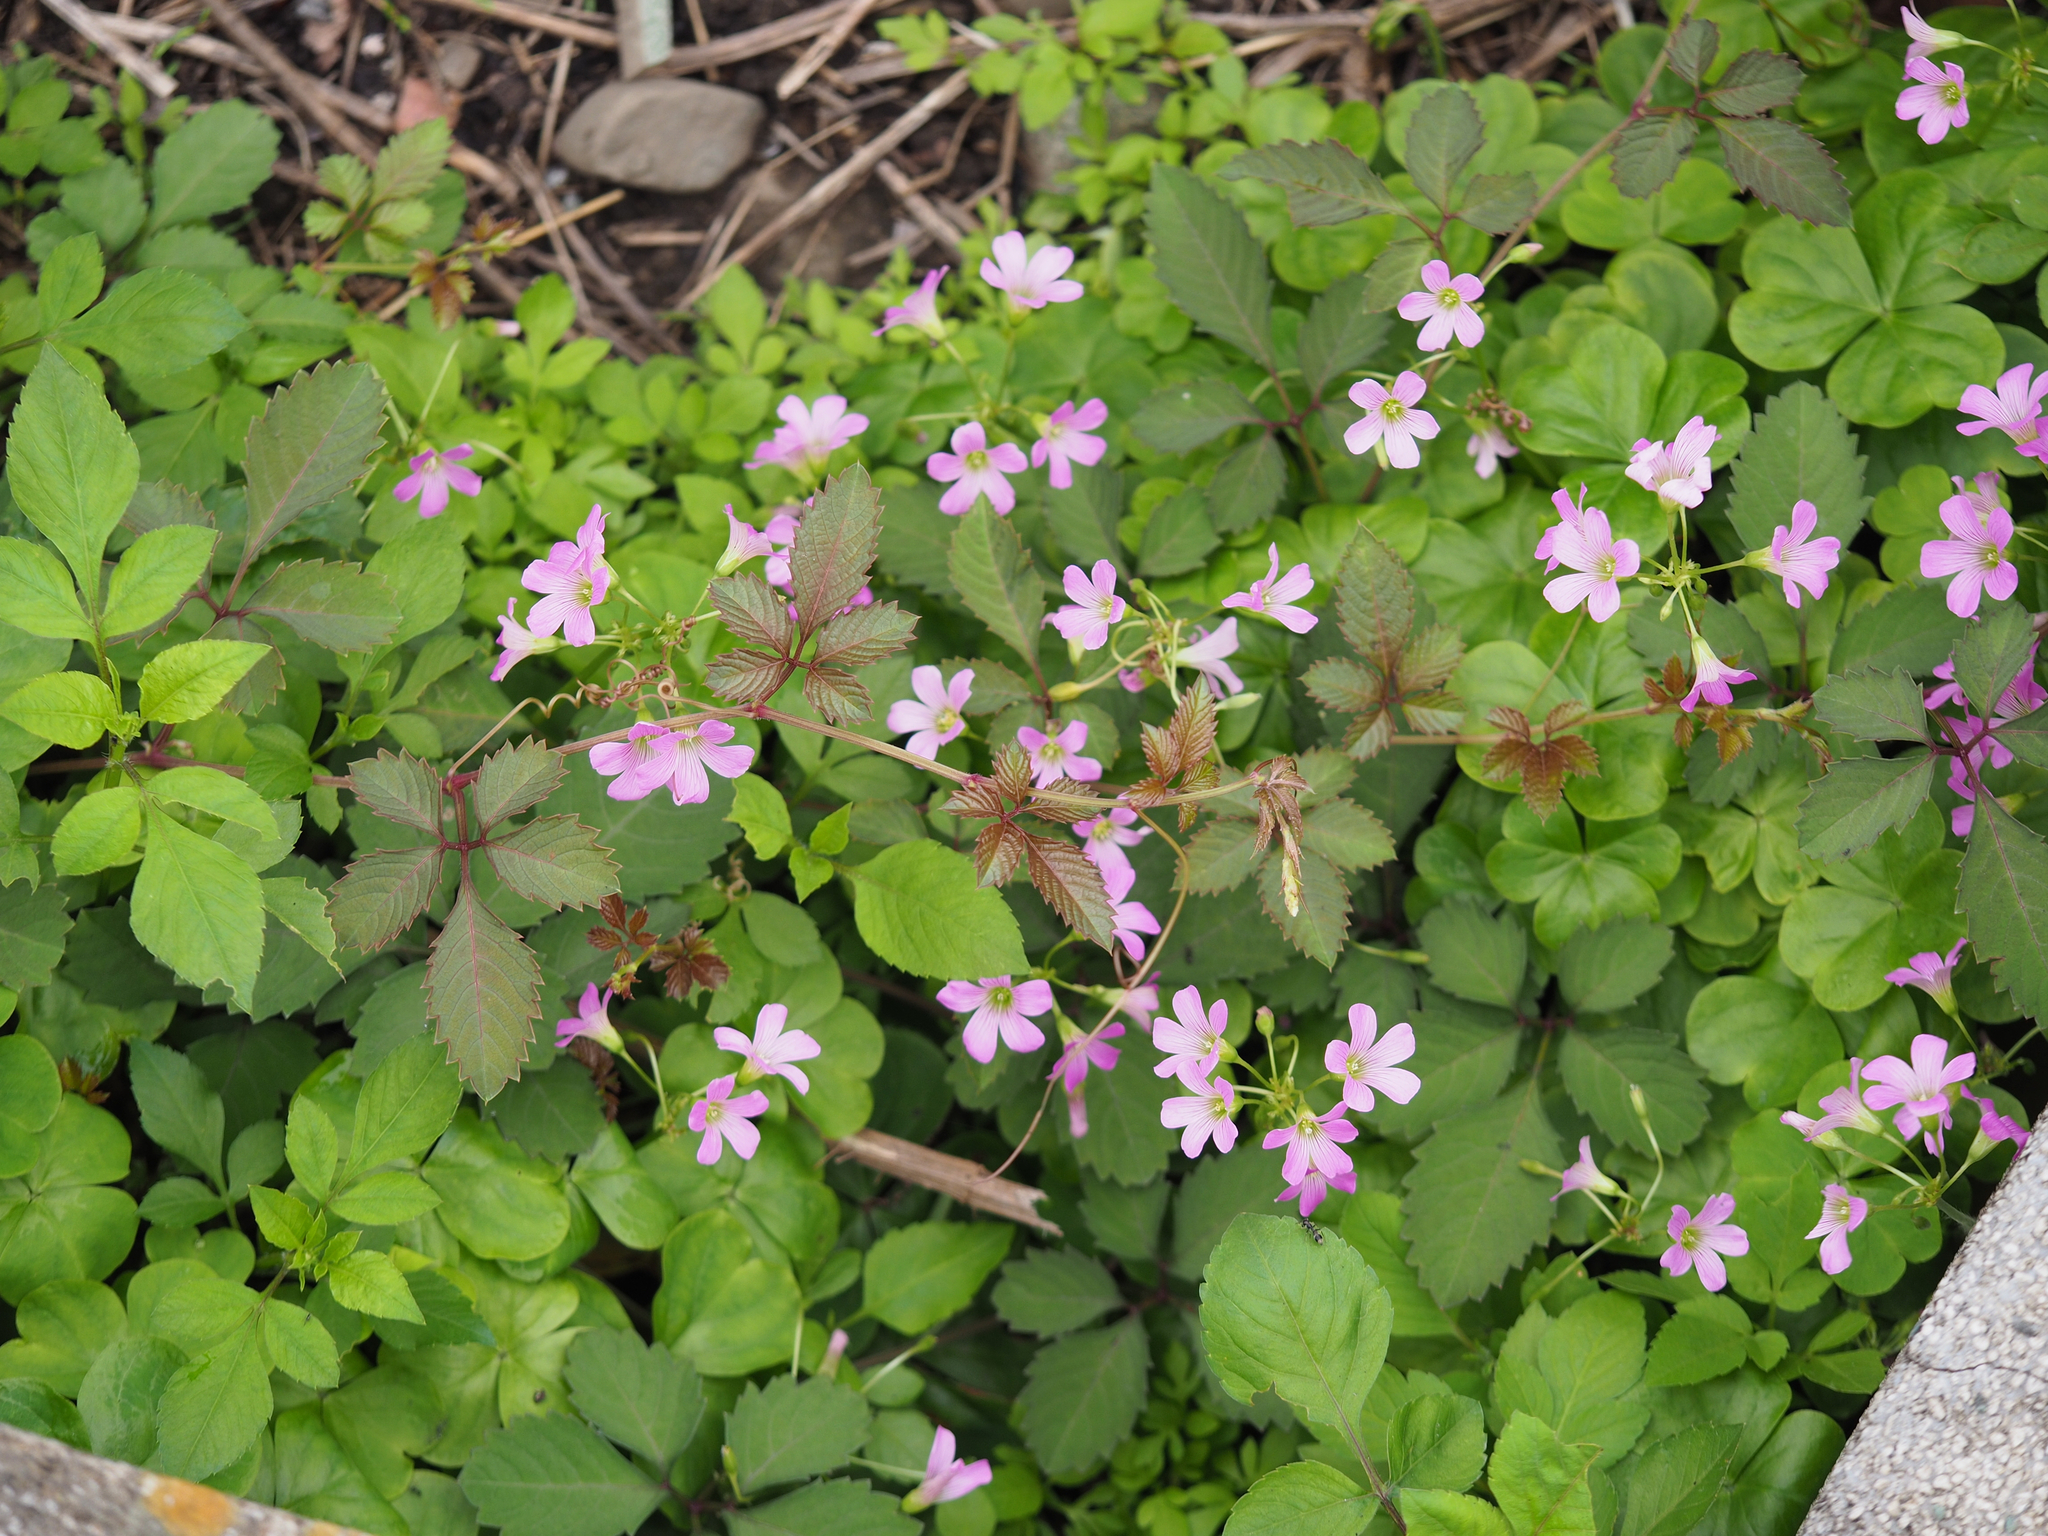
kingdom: Plantae
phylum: Tracheophyta
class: Magnoliopsida
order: Oxalidales
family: Oxalidaceae
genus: Oxalis
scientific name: Oxalis debilis
